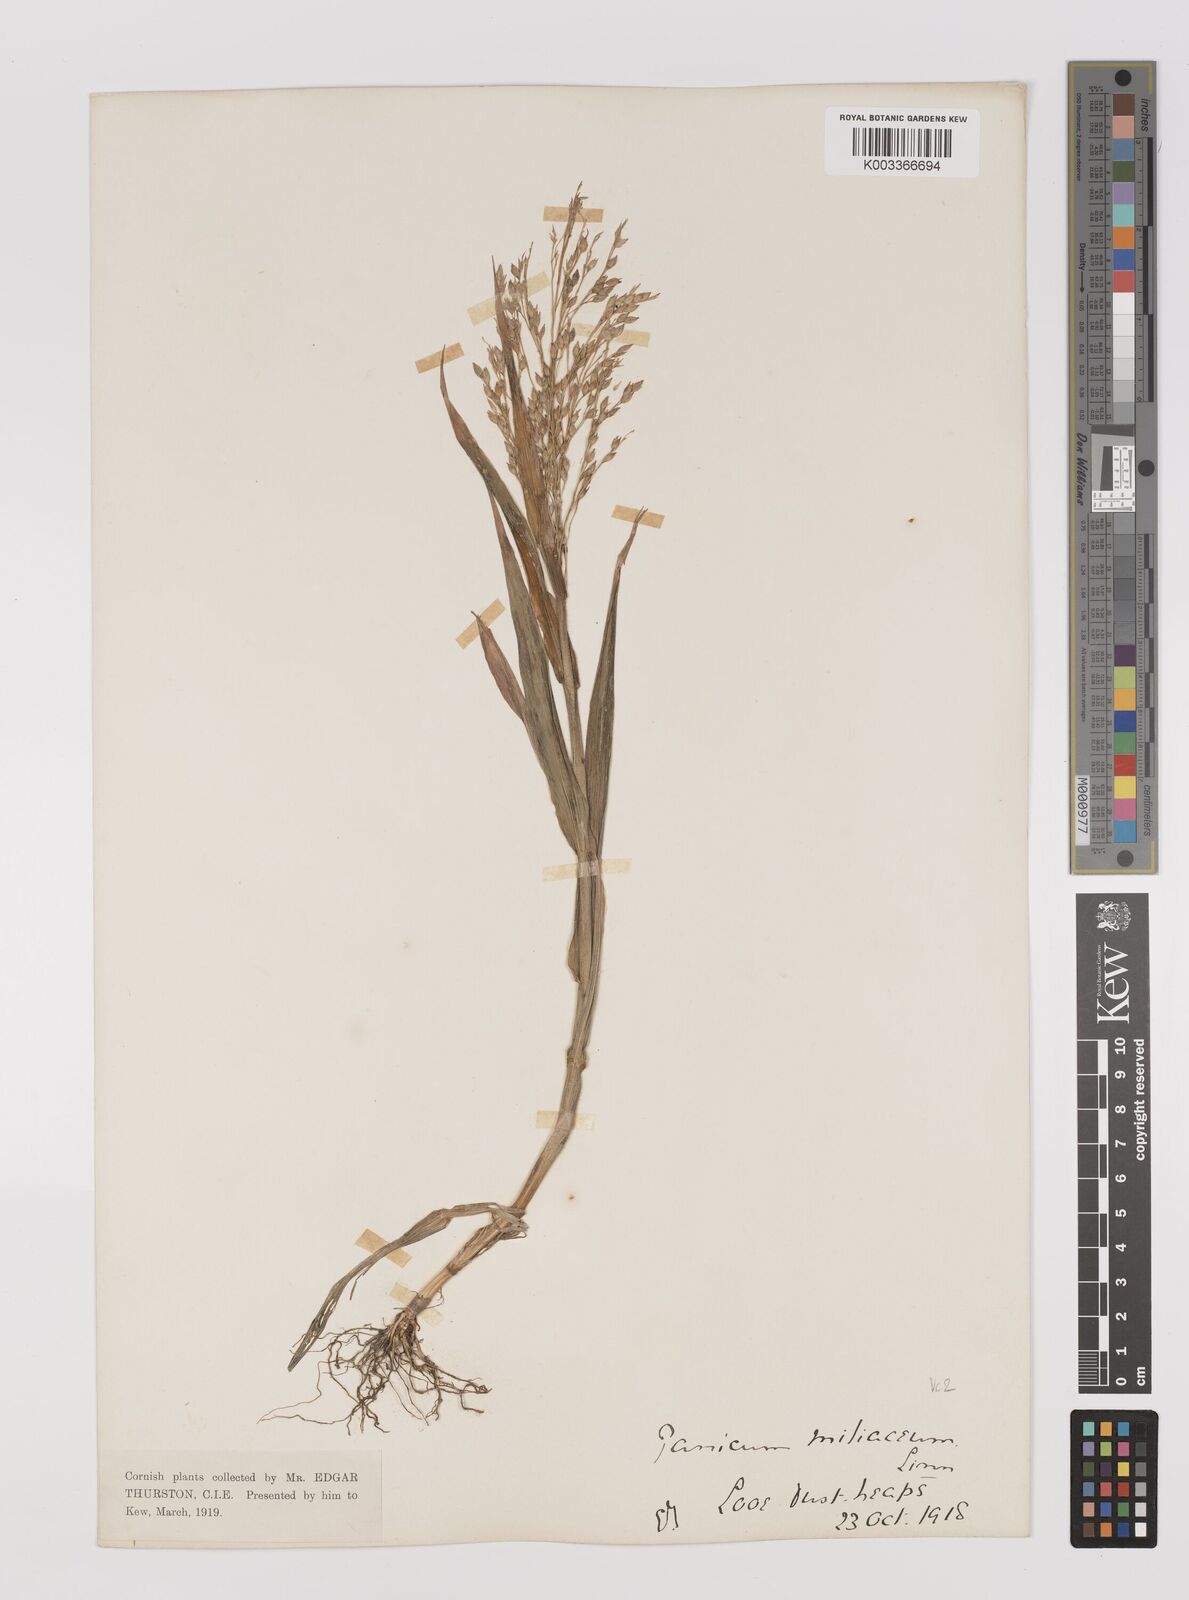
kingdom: Plantae
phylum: Tracheophyta
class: Liliopsida
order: Poales
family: Poaceae
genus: Panicum
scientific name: Panicum miliaceum
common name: Common millet
